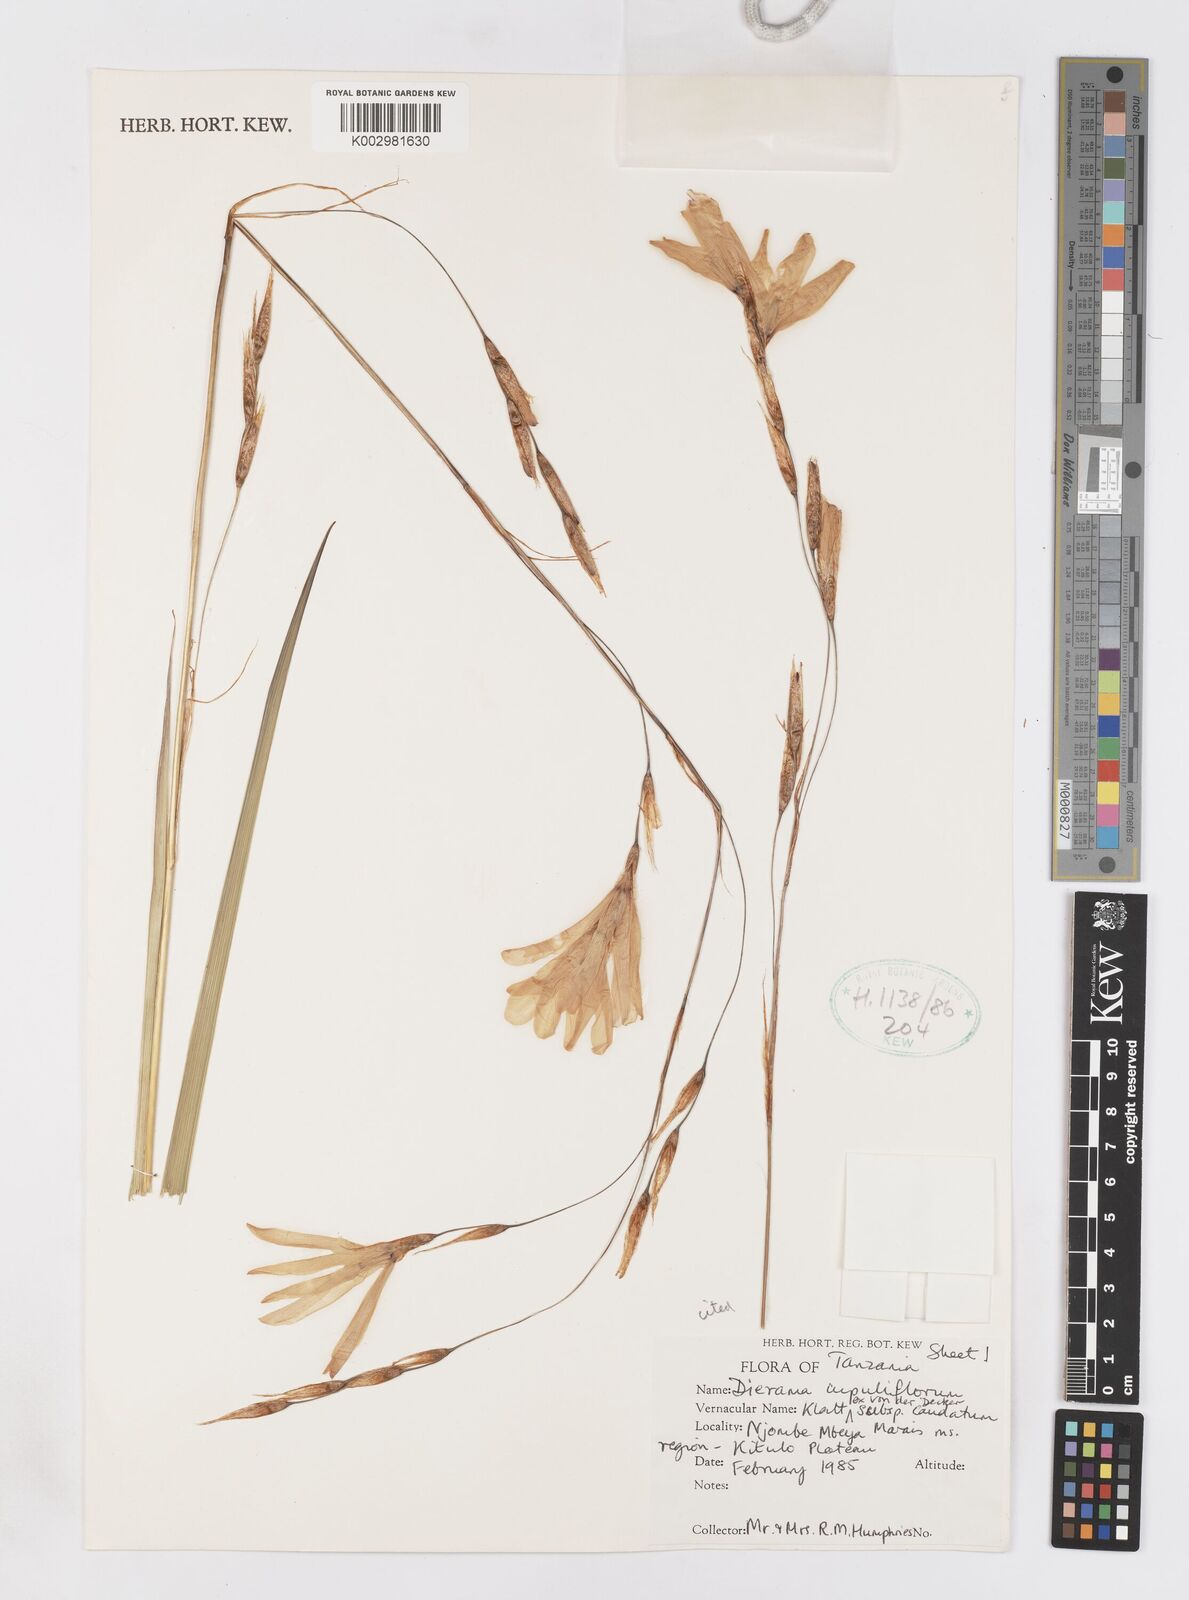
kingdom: Plantae
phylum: Tracheophyta
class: Liliopsida
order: Asparagales
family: Iridaceae
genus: Dierama
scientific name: Dierama cupuliflorum
